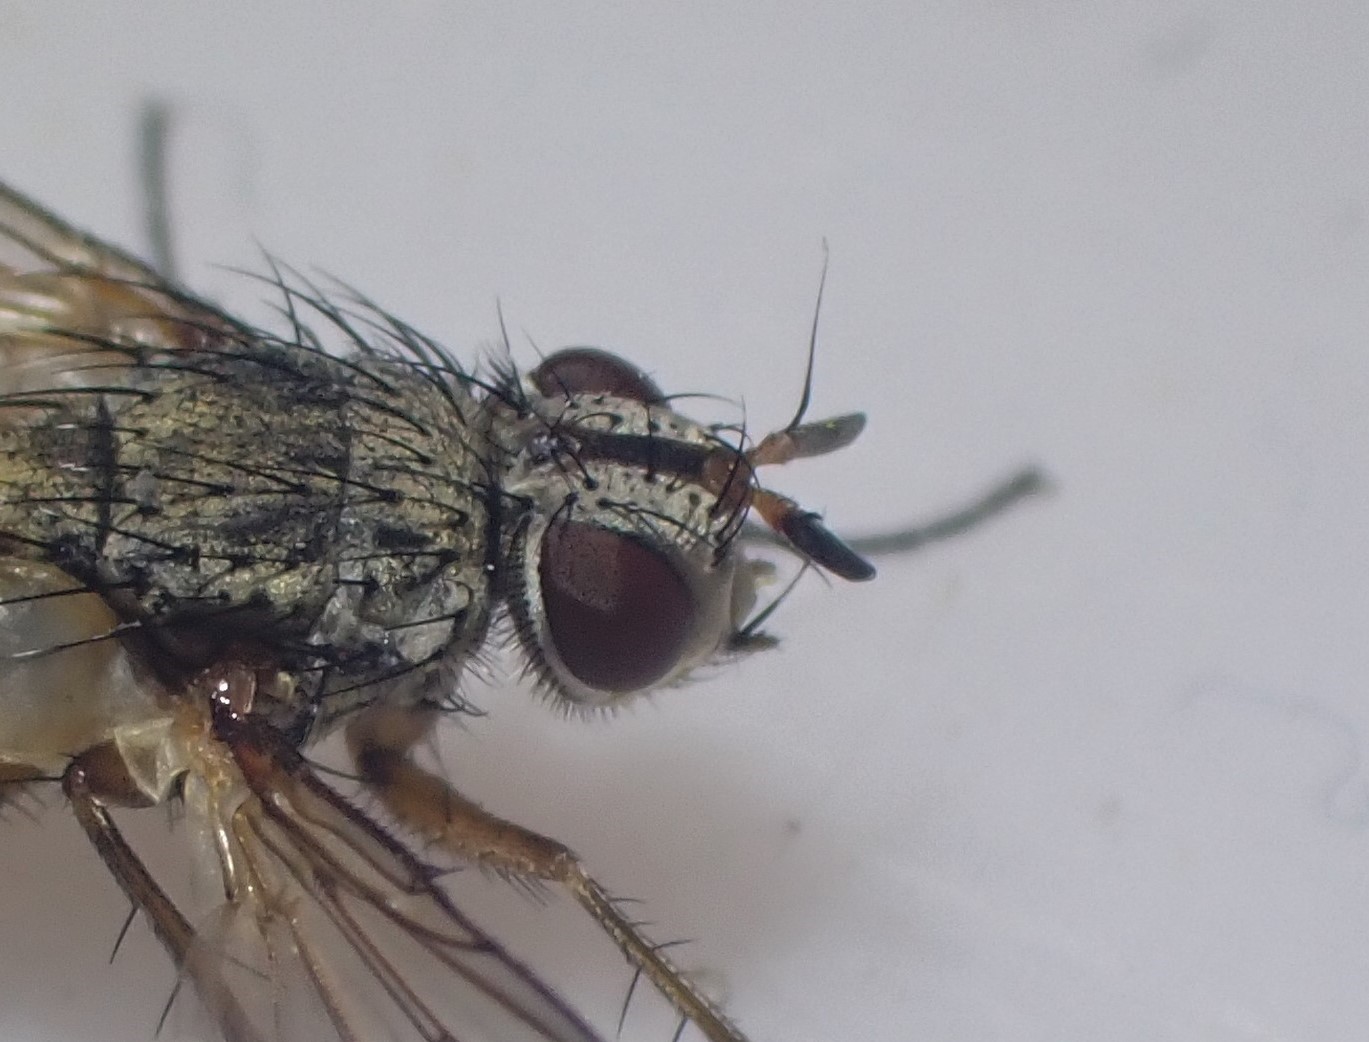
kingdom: Animalia
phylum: Arthropoda
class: Insecta
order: Diptera
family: Tachinidae
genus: Solieria
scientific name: Solieria pacifica
